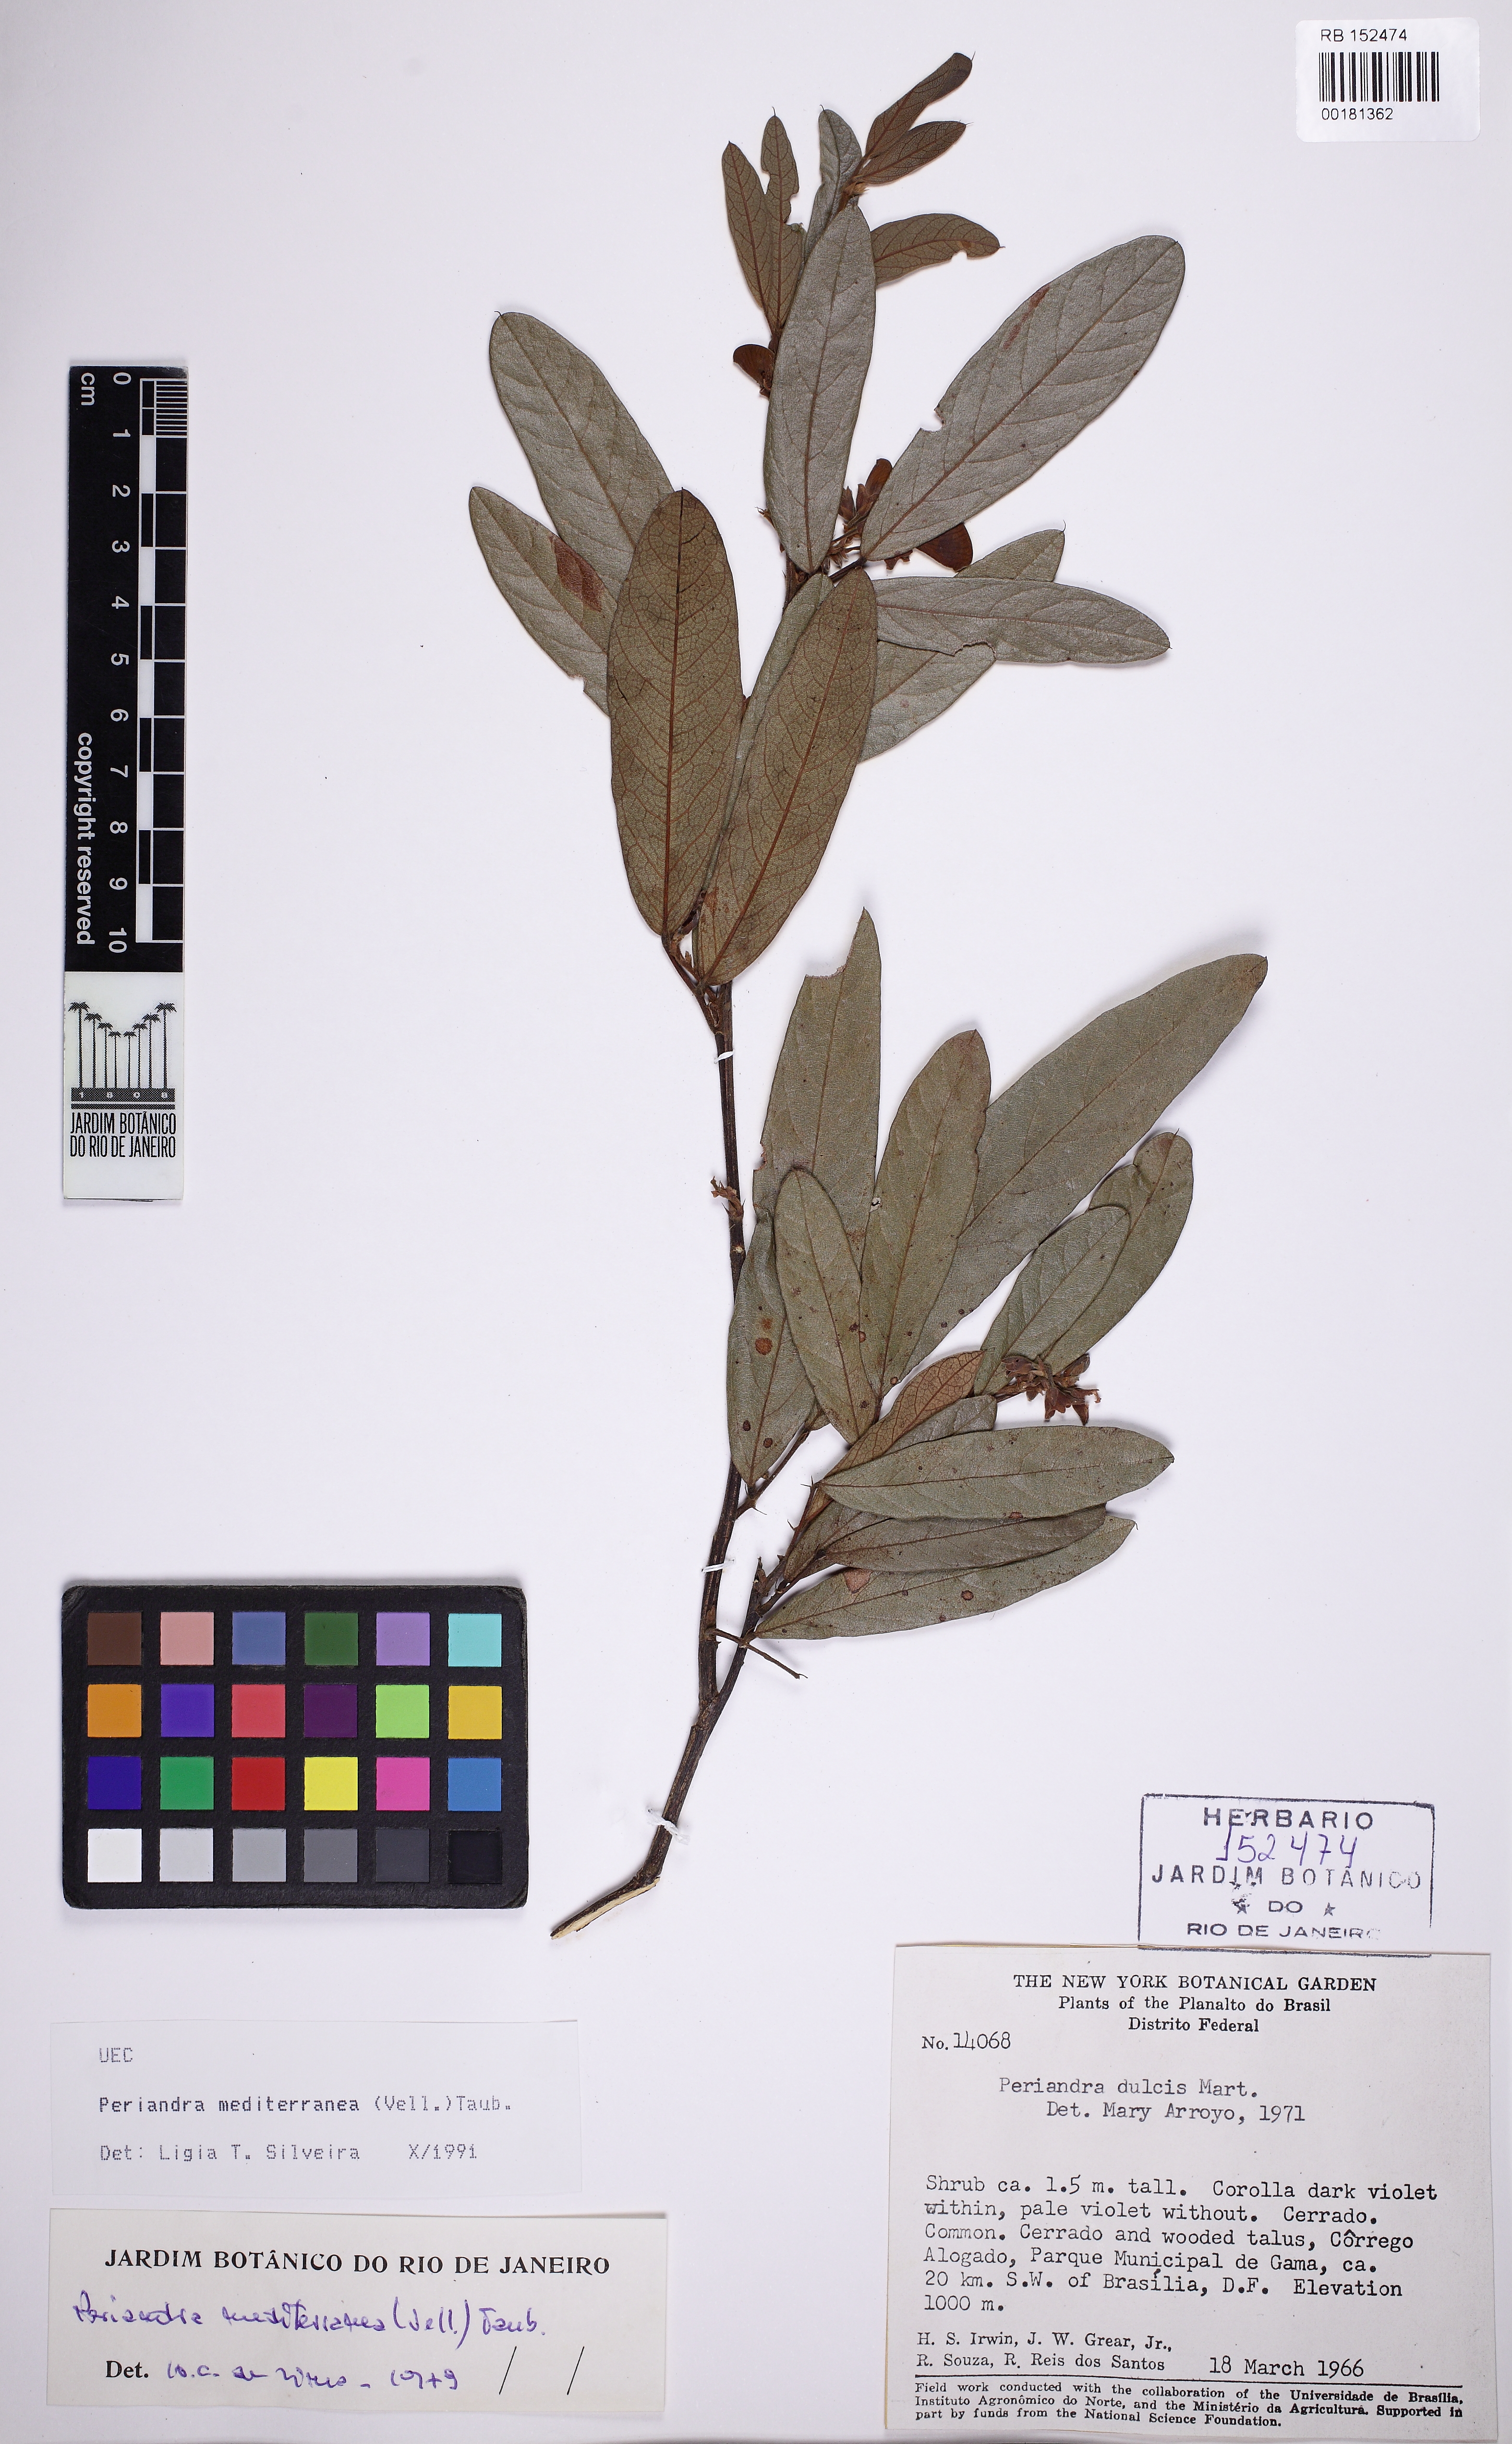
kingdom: Plantae
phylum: Tracheophyta
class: Magnoliopsida
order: Fabales
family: Fabaceae
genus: Periandra
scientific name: Periandra mediterranea
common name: Brazilian licorice
